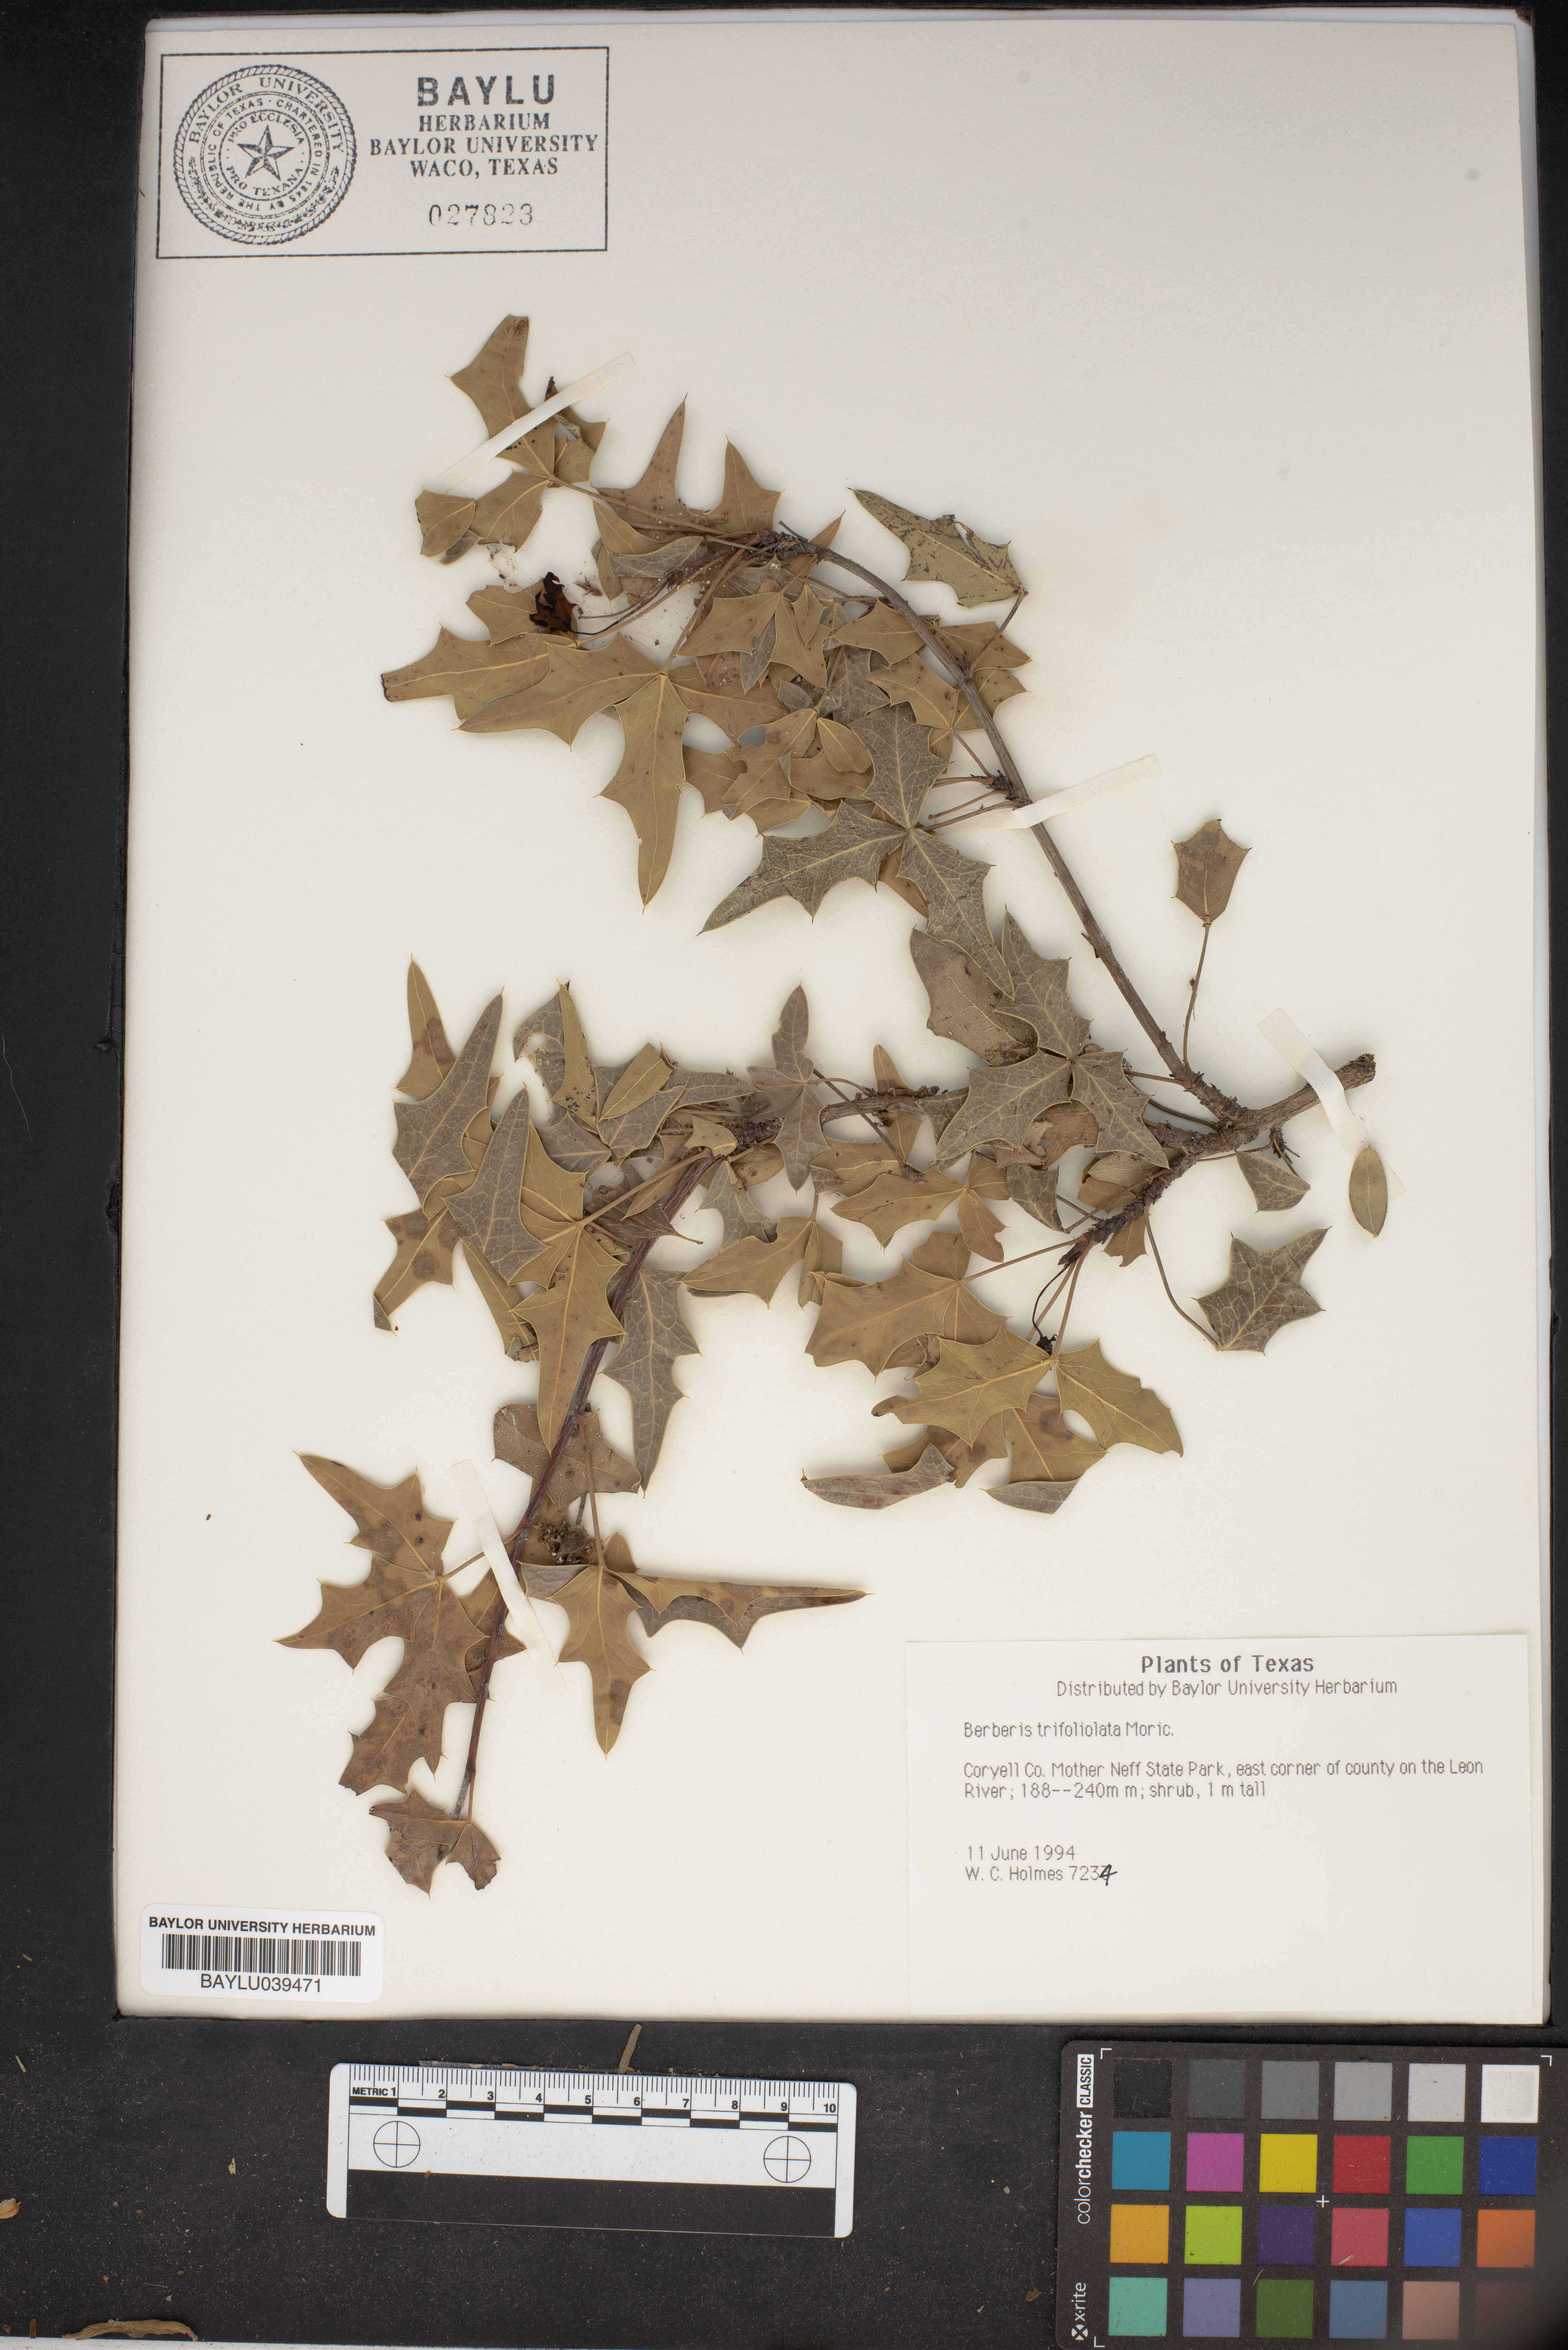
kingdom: Plantae
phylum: Tracheophyta
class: Magnoliopsida
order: Ranunculales
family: Berberidaceae
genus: Alloberberis
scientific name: Alloberberis trifoliolata
